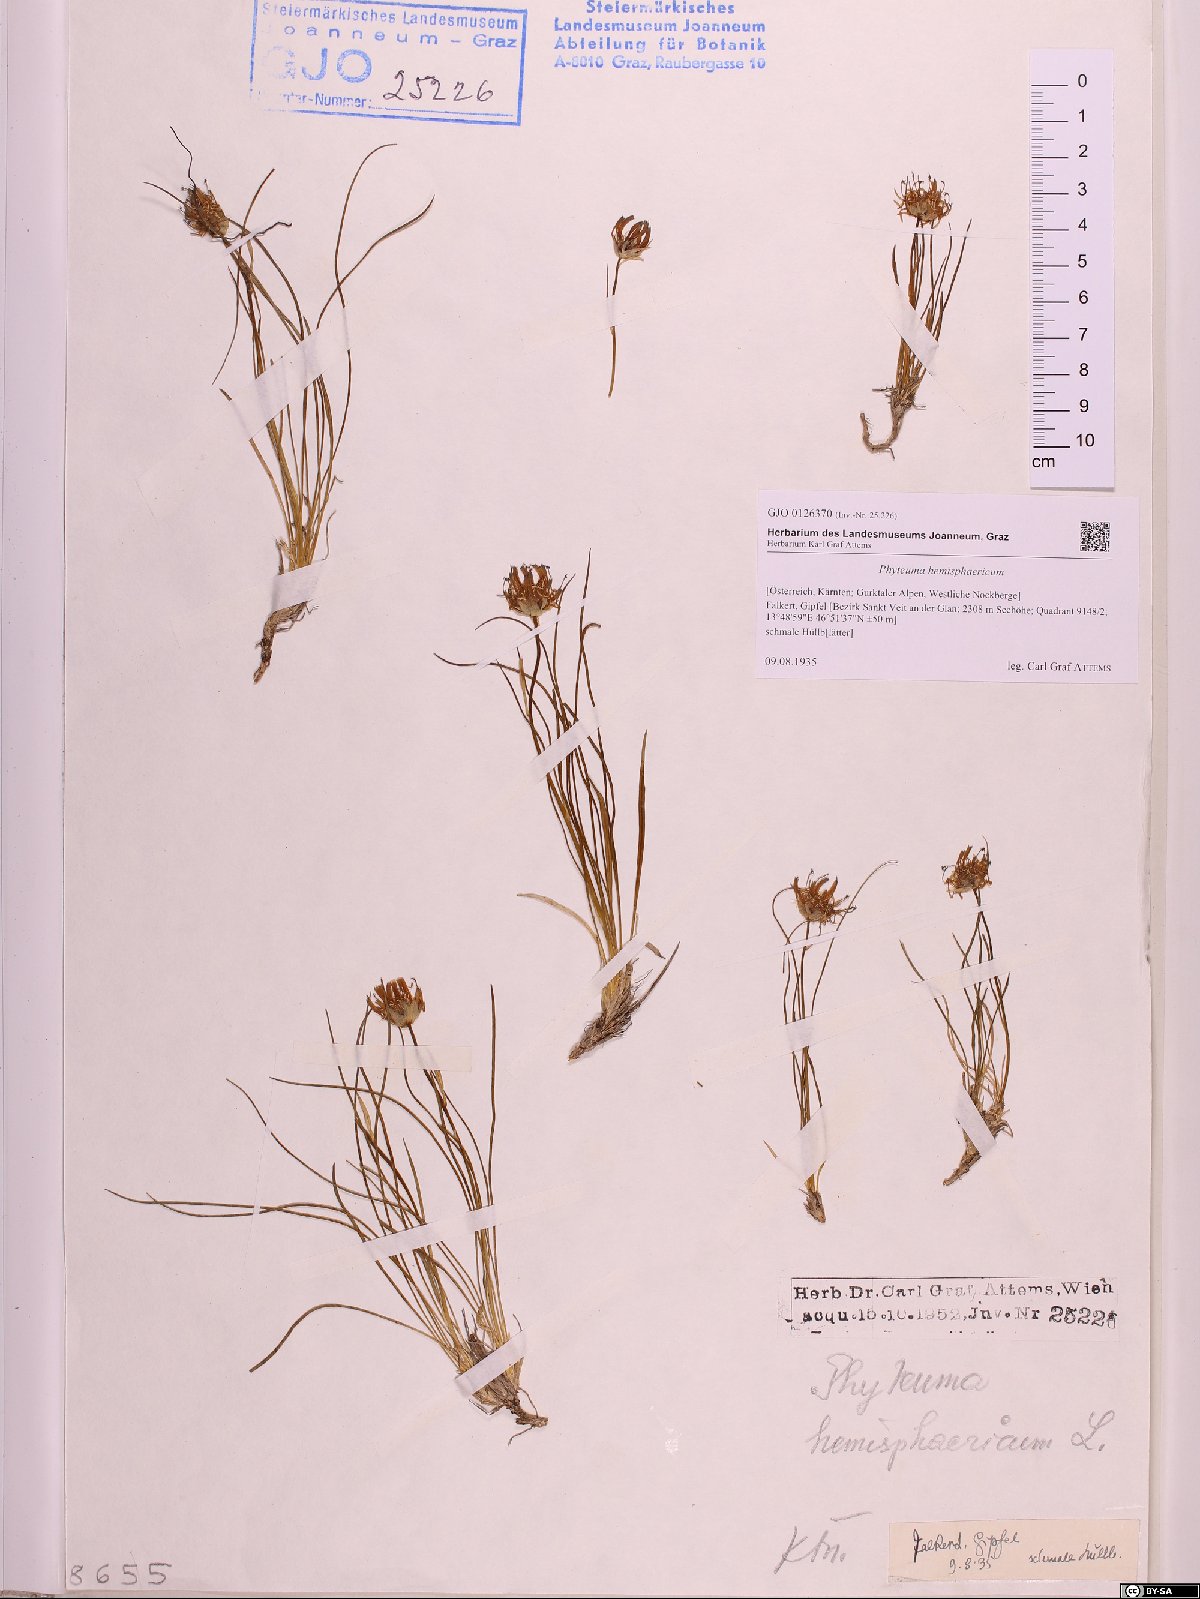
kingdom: Plantae
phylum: Tracheophyta
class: Magnoliopsida
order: Asterales
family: Campanulaceae
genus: Phyteuma
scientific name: Phyteuma hemisphaericum
